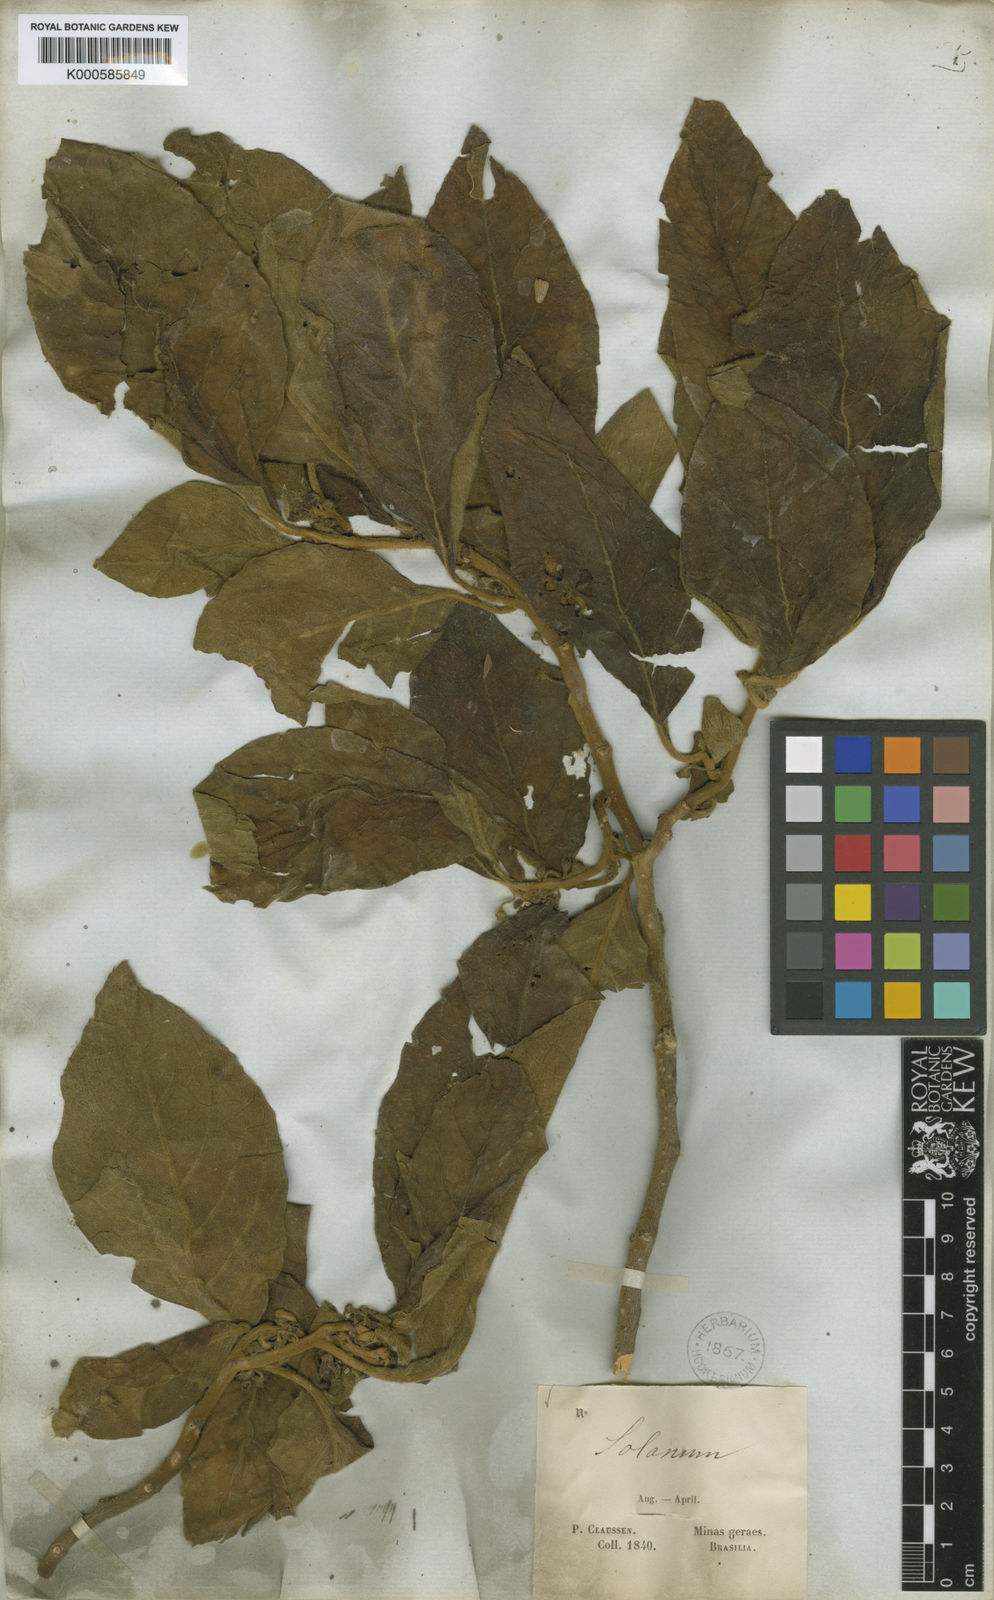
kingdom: Plantae
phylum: Tracheophyta
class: Magnoliopsida
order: Solanales
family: Solanaceae
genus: Athenaea
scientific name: Athenaea velutina
